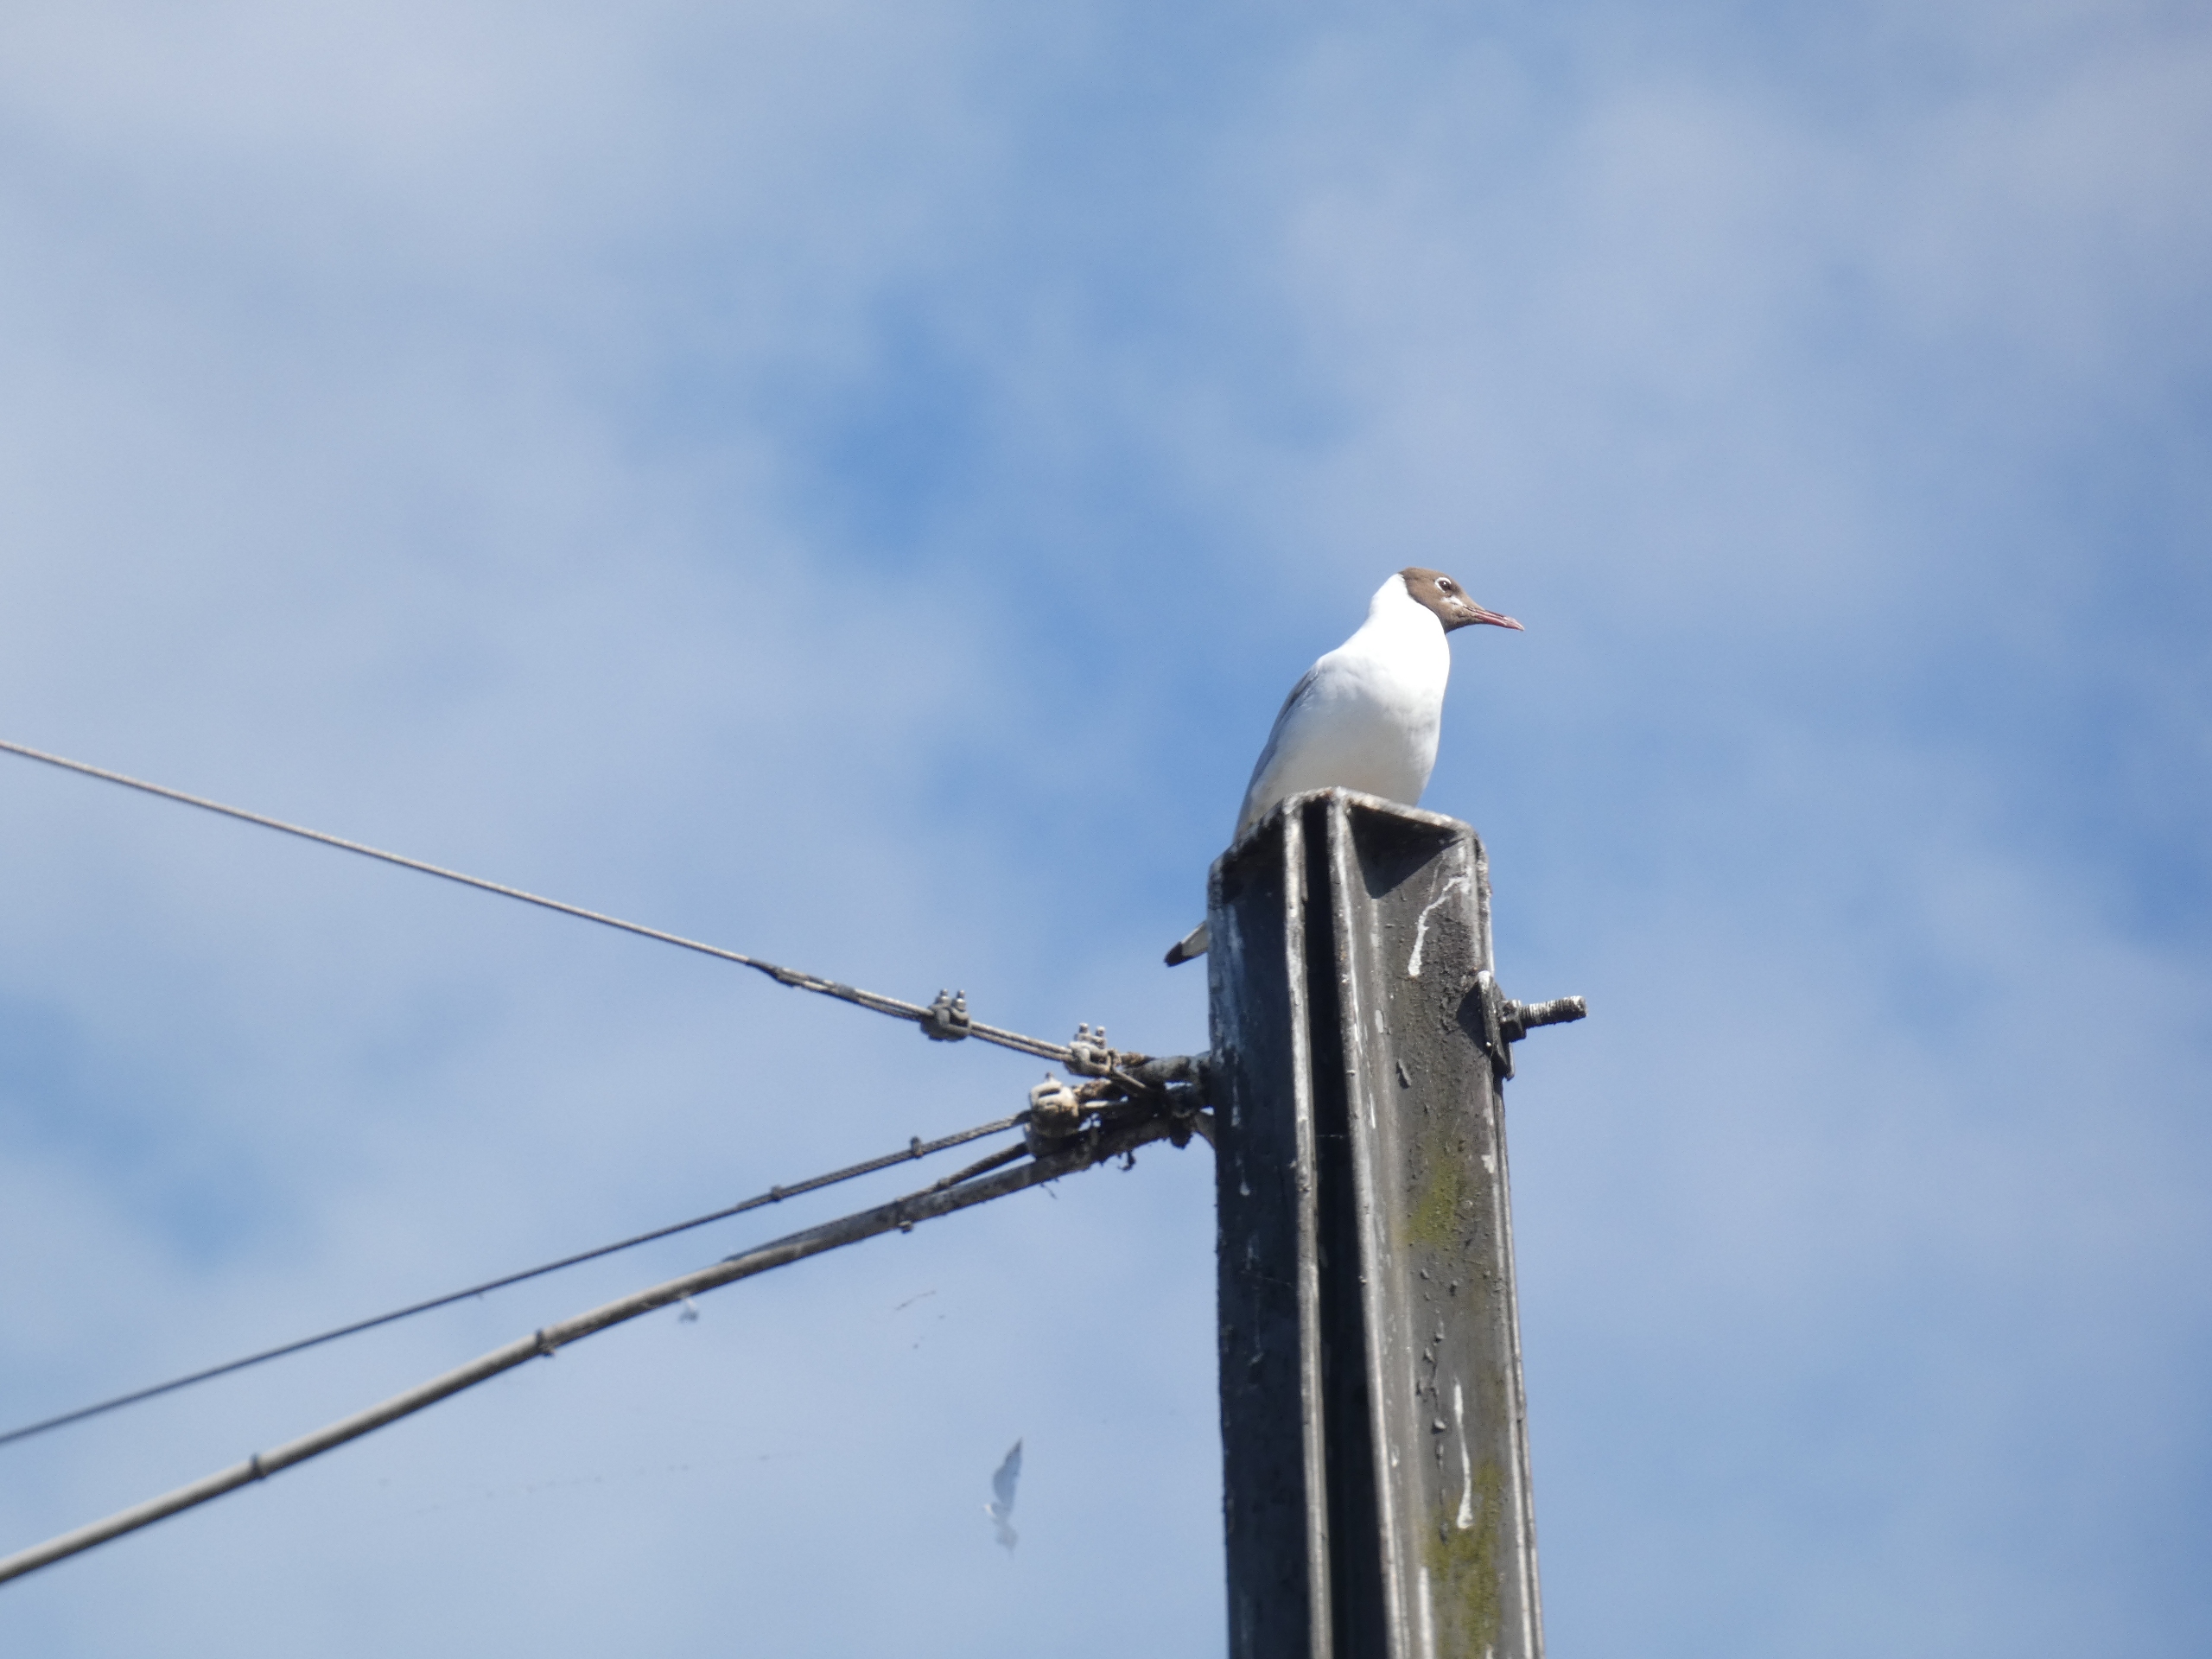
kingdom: Animalia
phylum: Chordata
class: Aves
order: Charadriiformes
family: Laridae
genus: Chroicocephalus
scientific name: Chroicocephalus ridibundus
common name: Hættemåge
